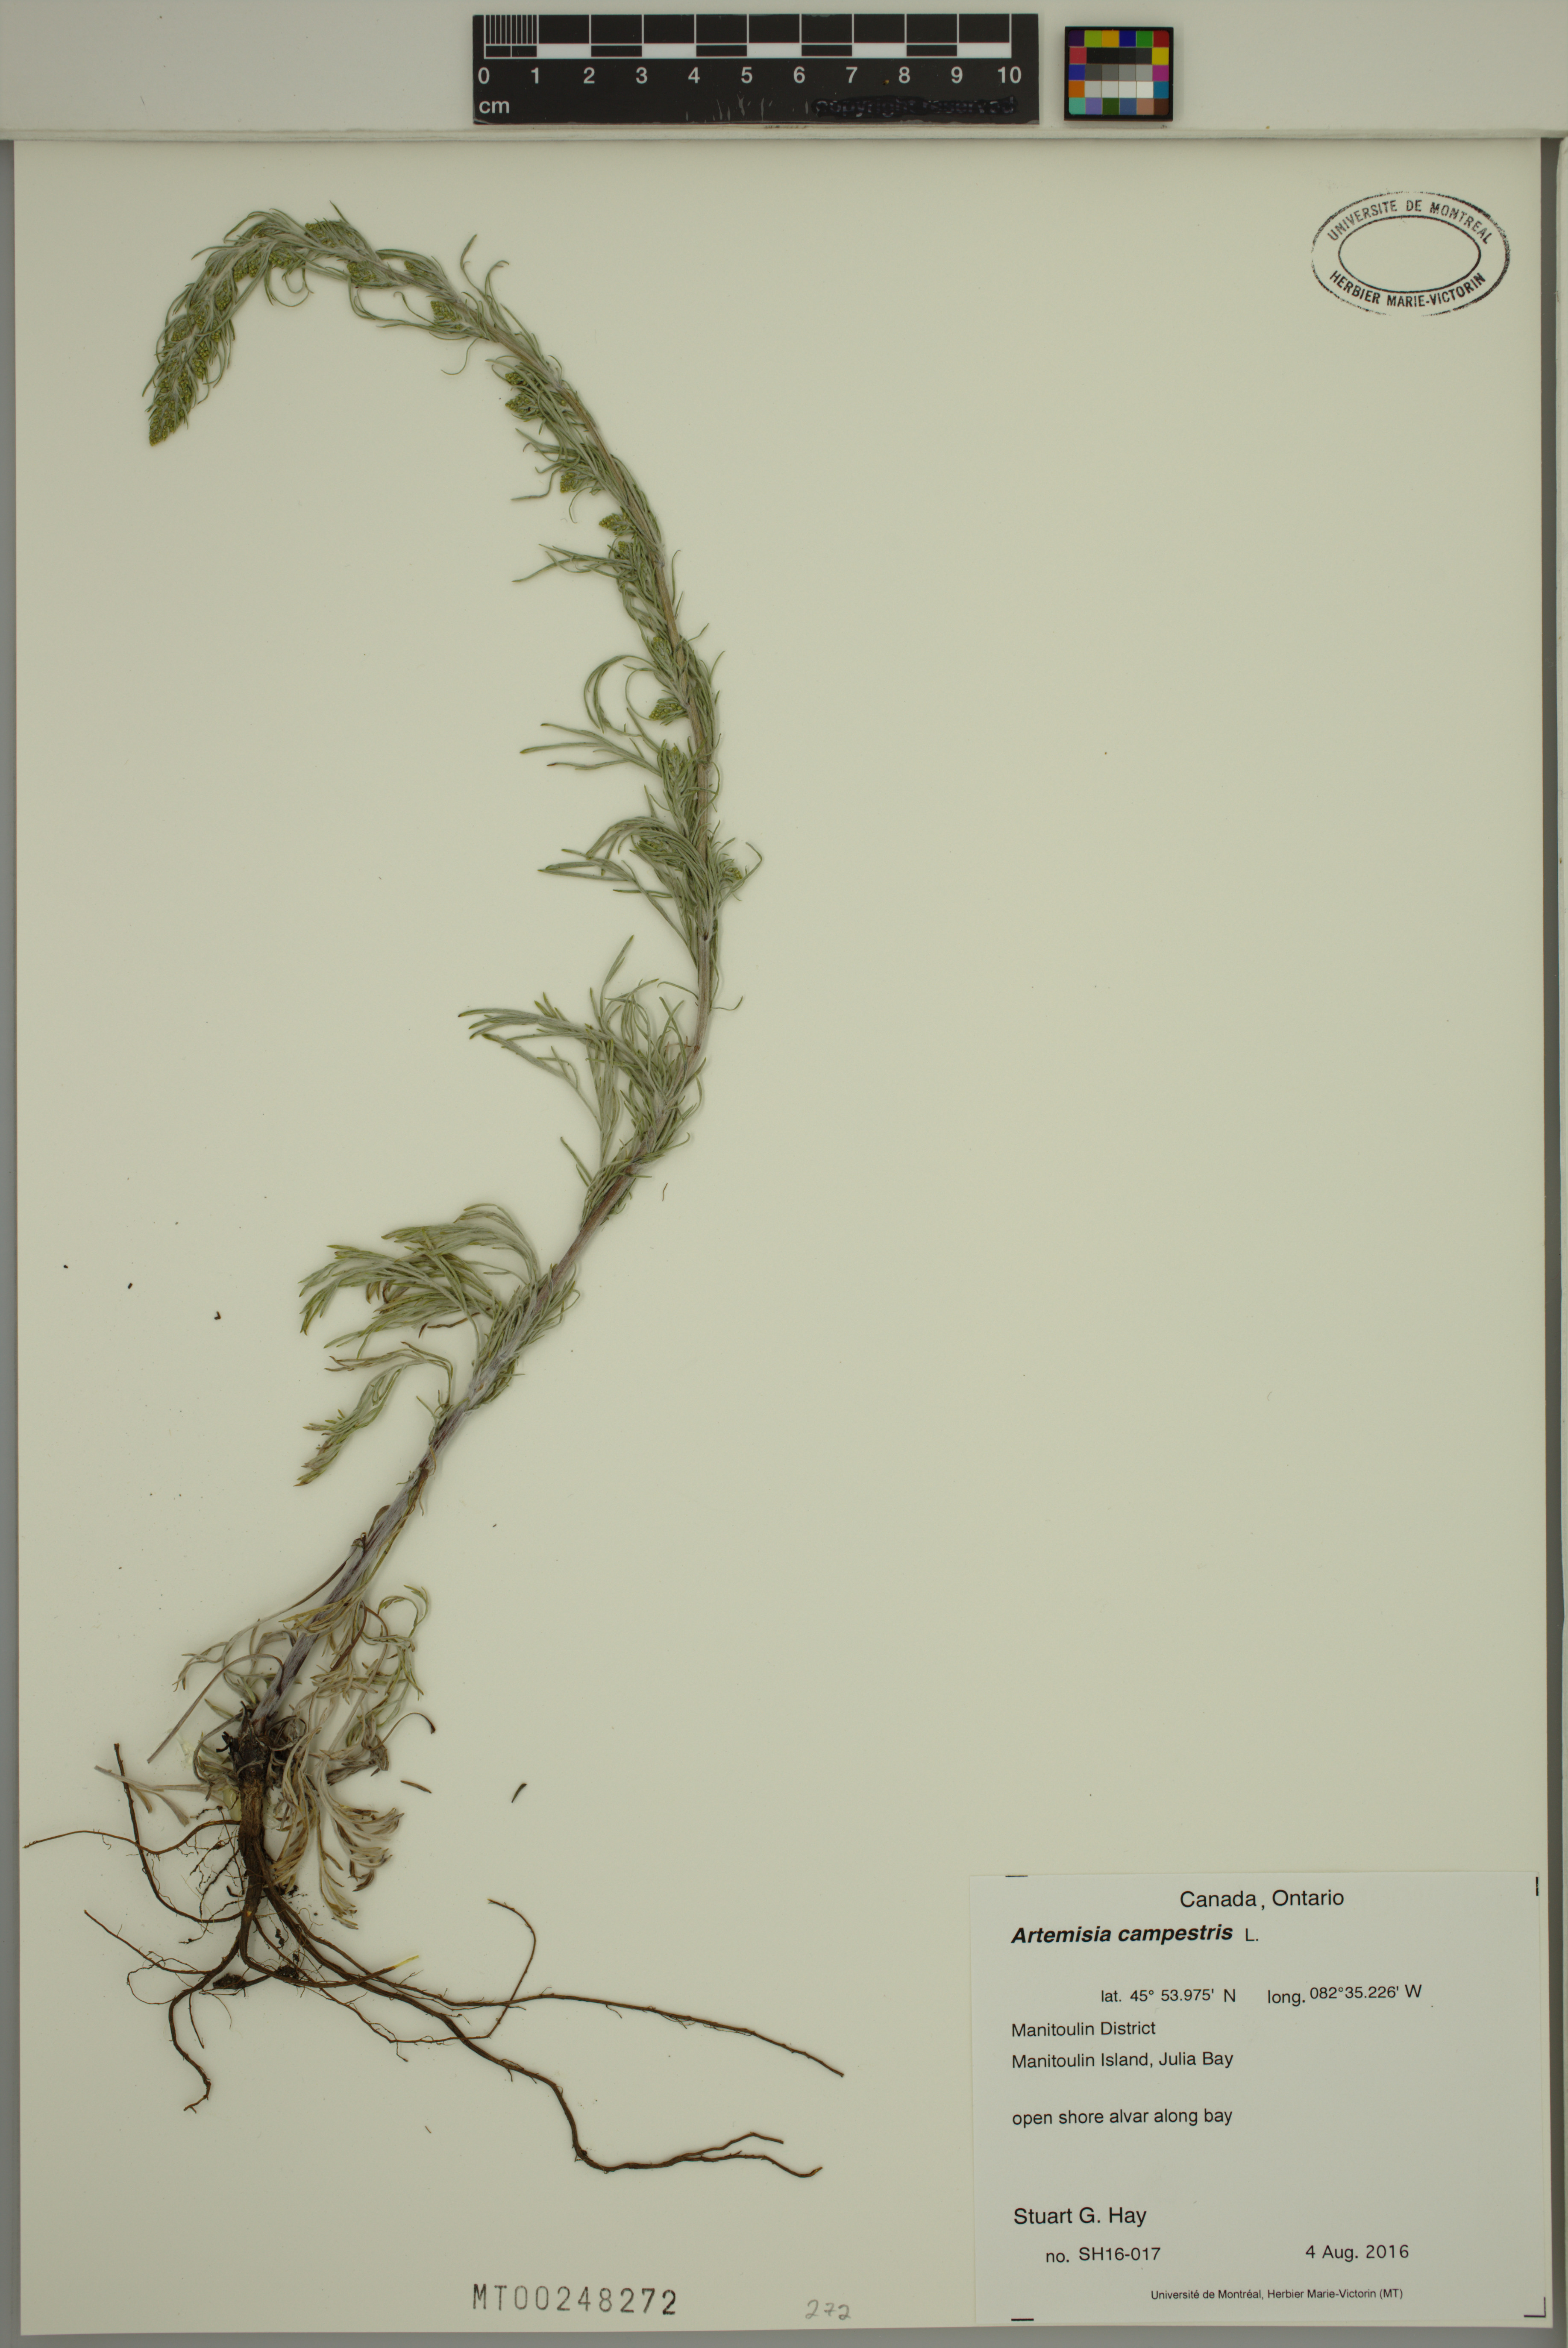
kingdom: Plantae
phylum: Tracheophyta
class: Magnoliopsida
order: Asterales
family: Asteraceae
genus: Artemisia
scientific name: Artemisia campestris
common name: Field wormwood
